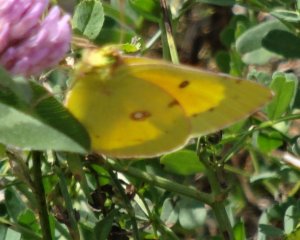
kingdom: Animalia
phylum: Arthropoda
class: Insecta
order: Lepidoptera
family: Pieridae
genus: Colias
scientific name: Colias eurytheme
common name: Orange Sulphur
